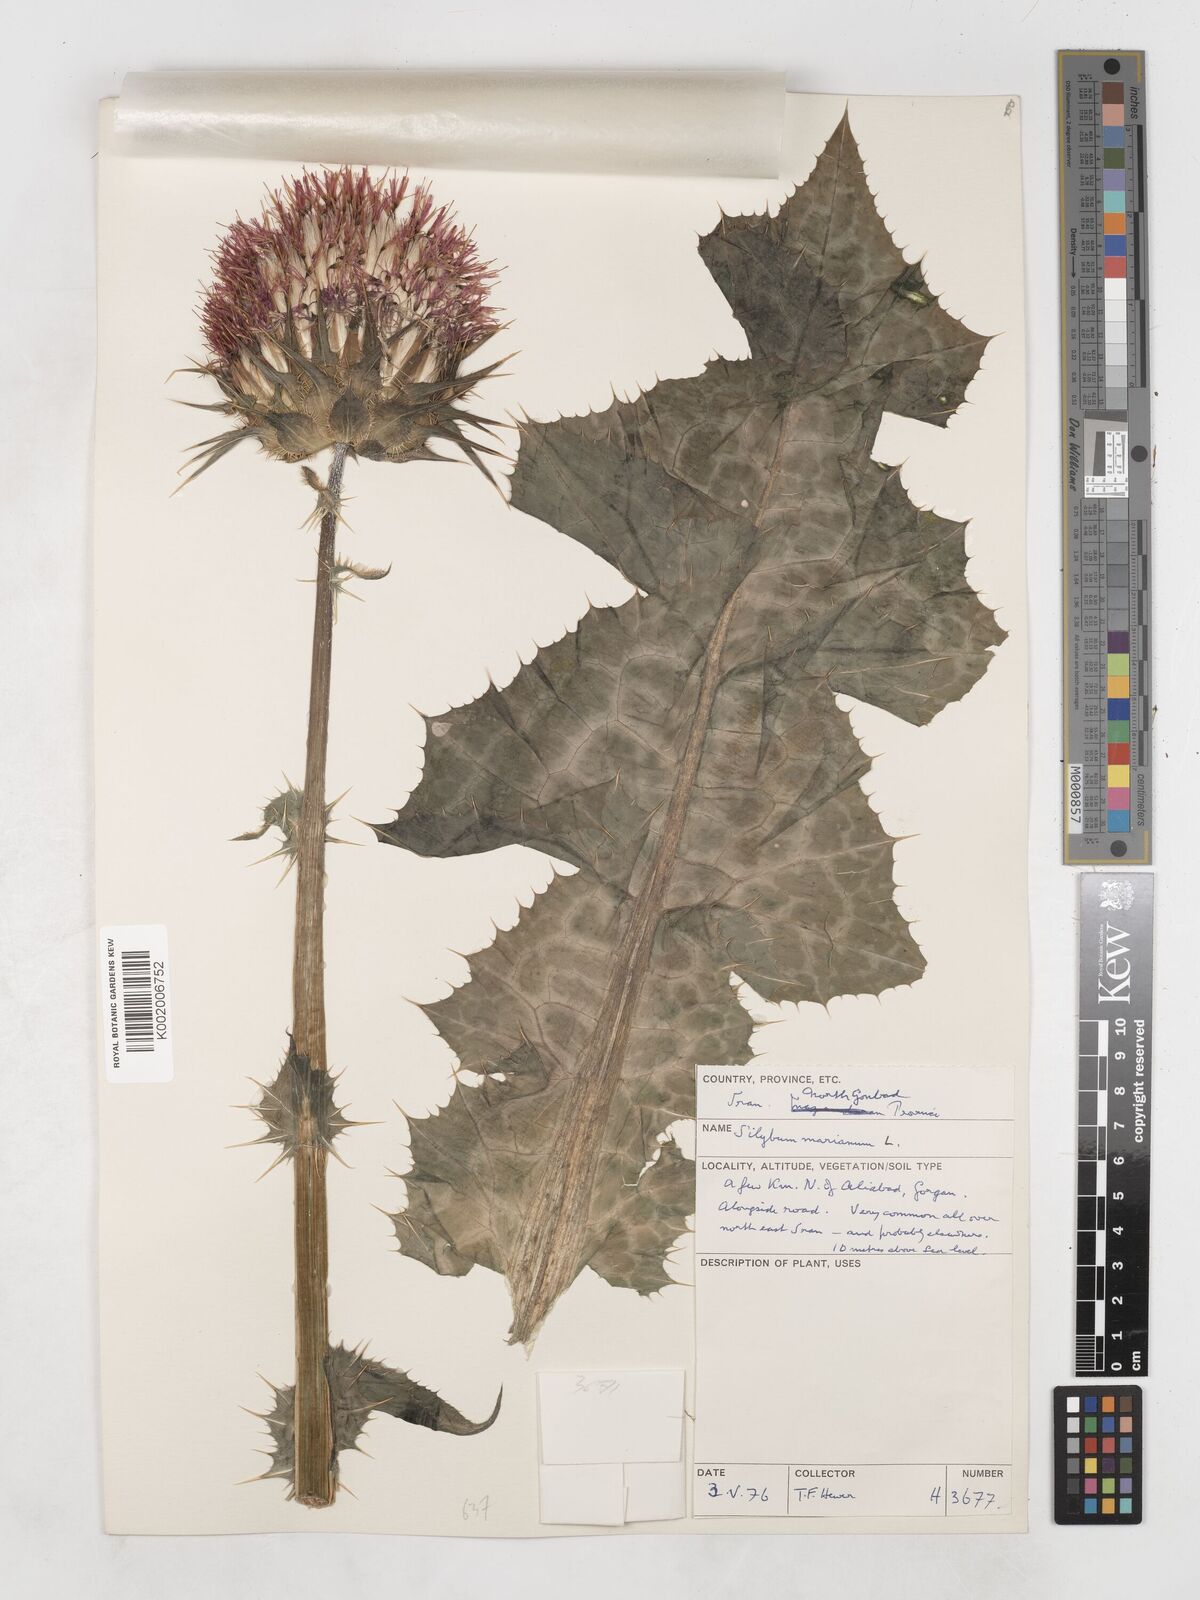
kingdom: Plantae
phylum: Tracheophyta
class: Magnoliopsida
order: Asterales
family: Asteraceae
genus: Silybum
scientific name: Silybum marianum
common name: Milk thistle
